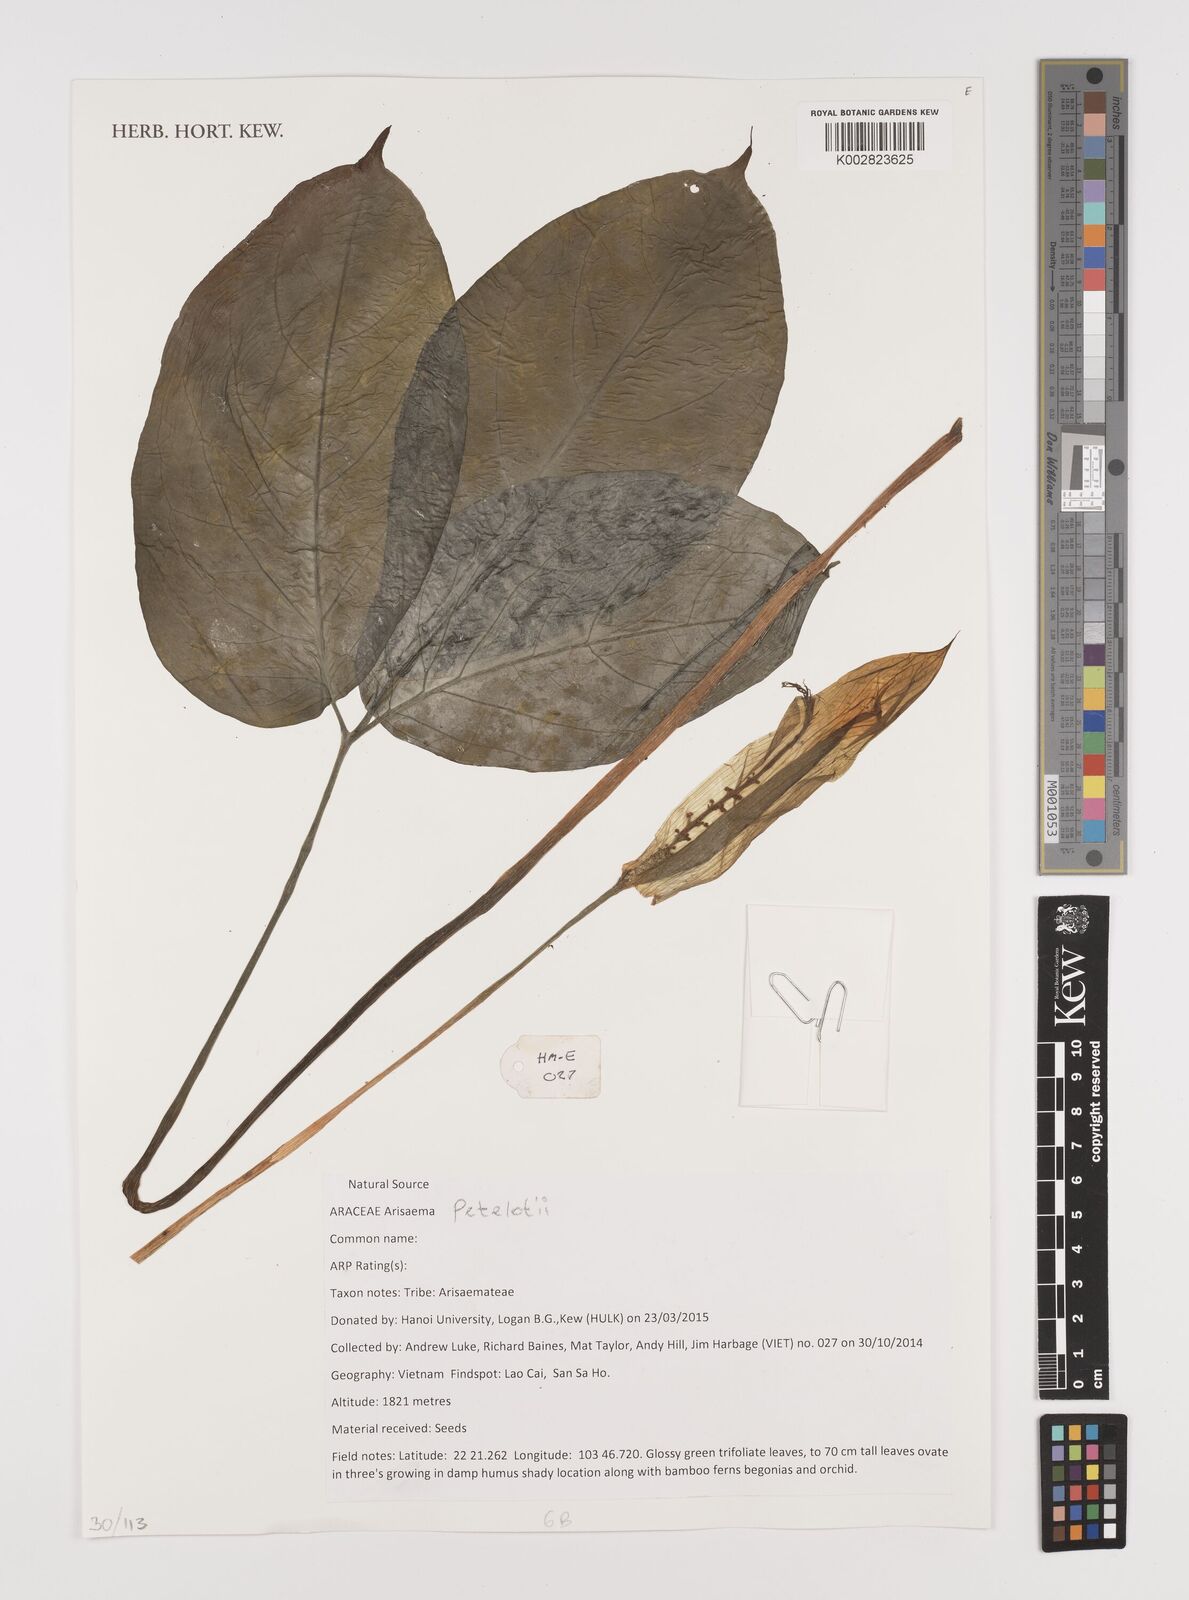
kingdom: Plantae
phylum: Tracheophyta
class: Liliopsida
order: Alismatales
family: Araceae
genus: Arisaema
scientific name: Arisaema petelotii
